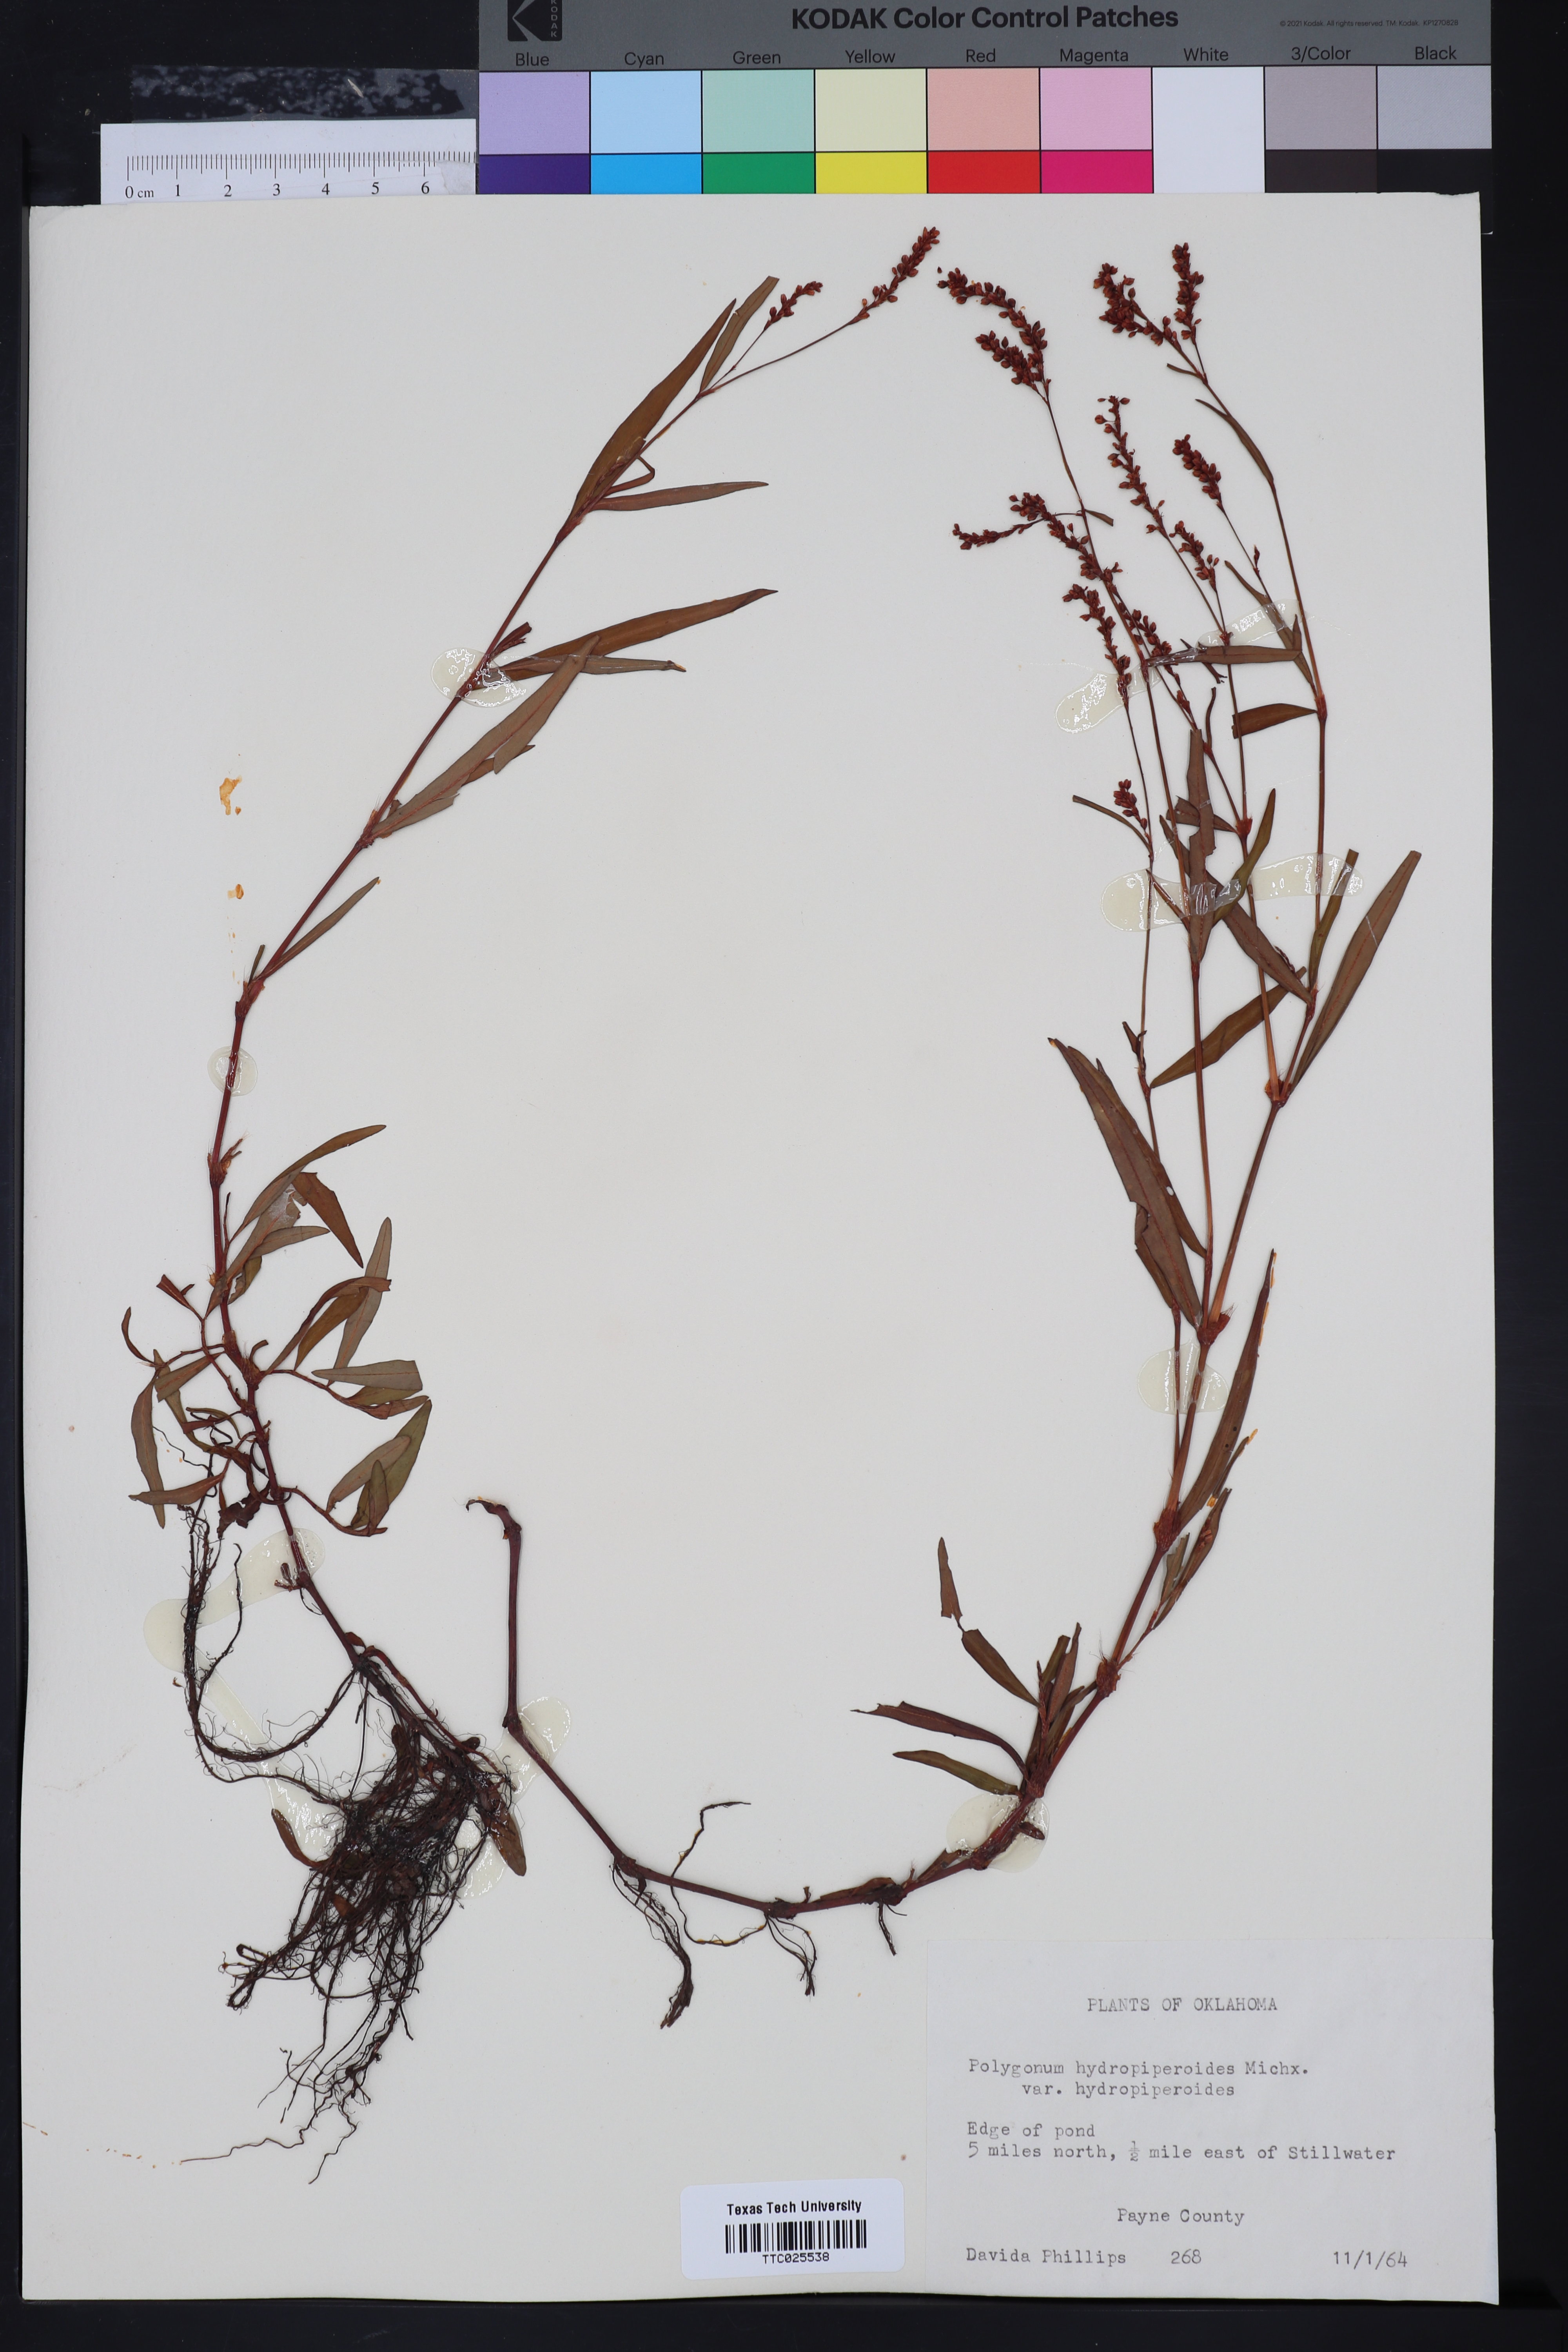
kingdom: Plantae
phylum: Tracheophyta
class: Magnoliopsida
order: Caryophyllales
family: Polygonaceae
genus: Persicaria
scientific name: Persicaria hydropiperoides
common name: Swamp smartweed
